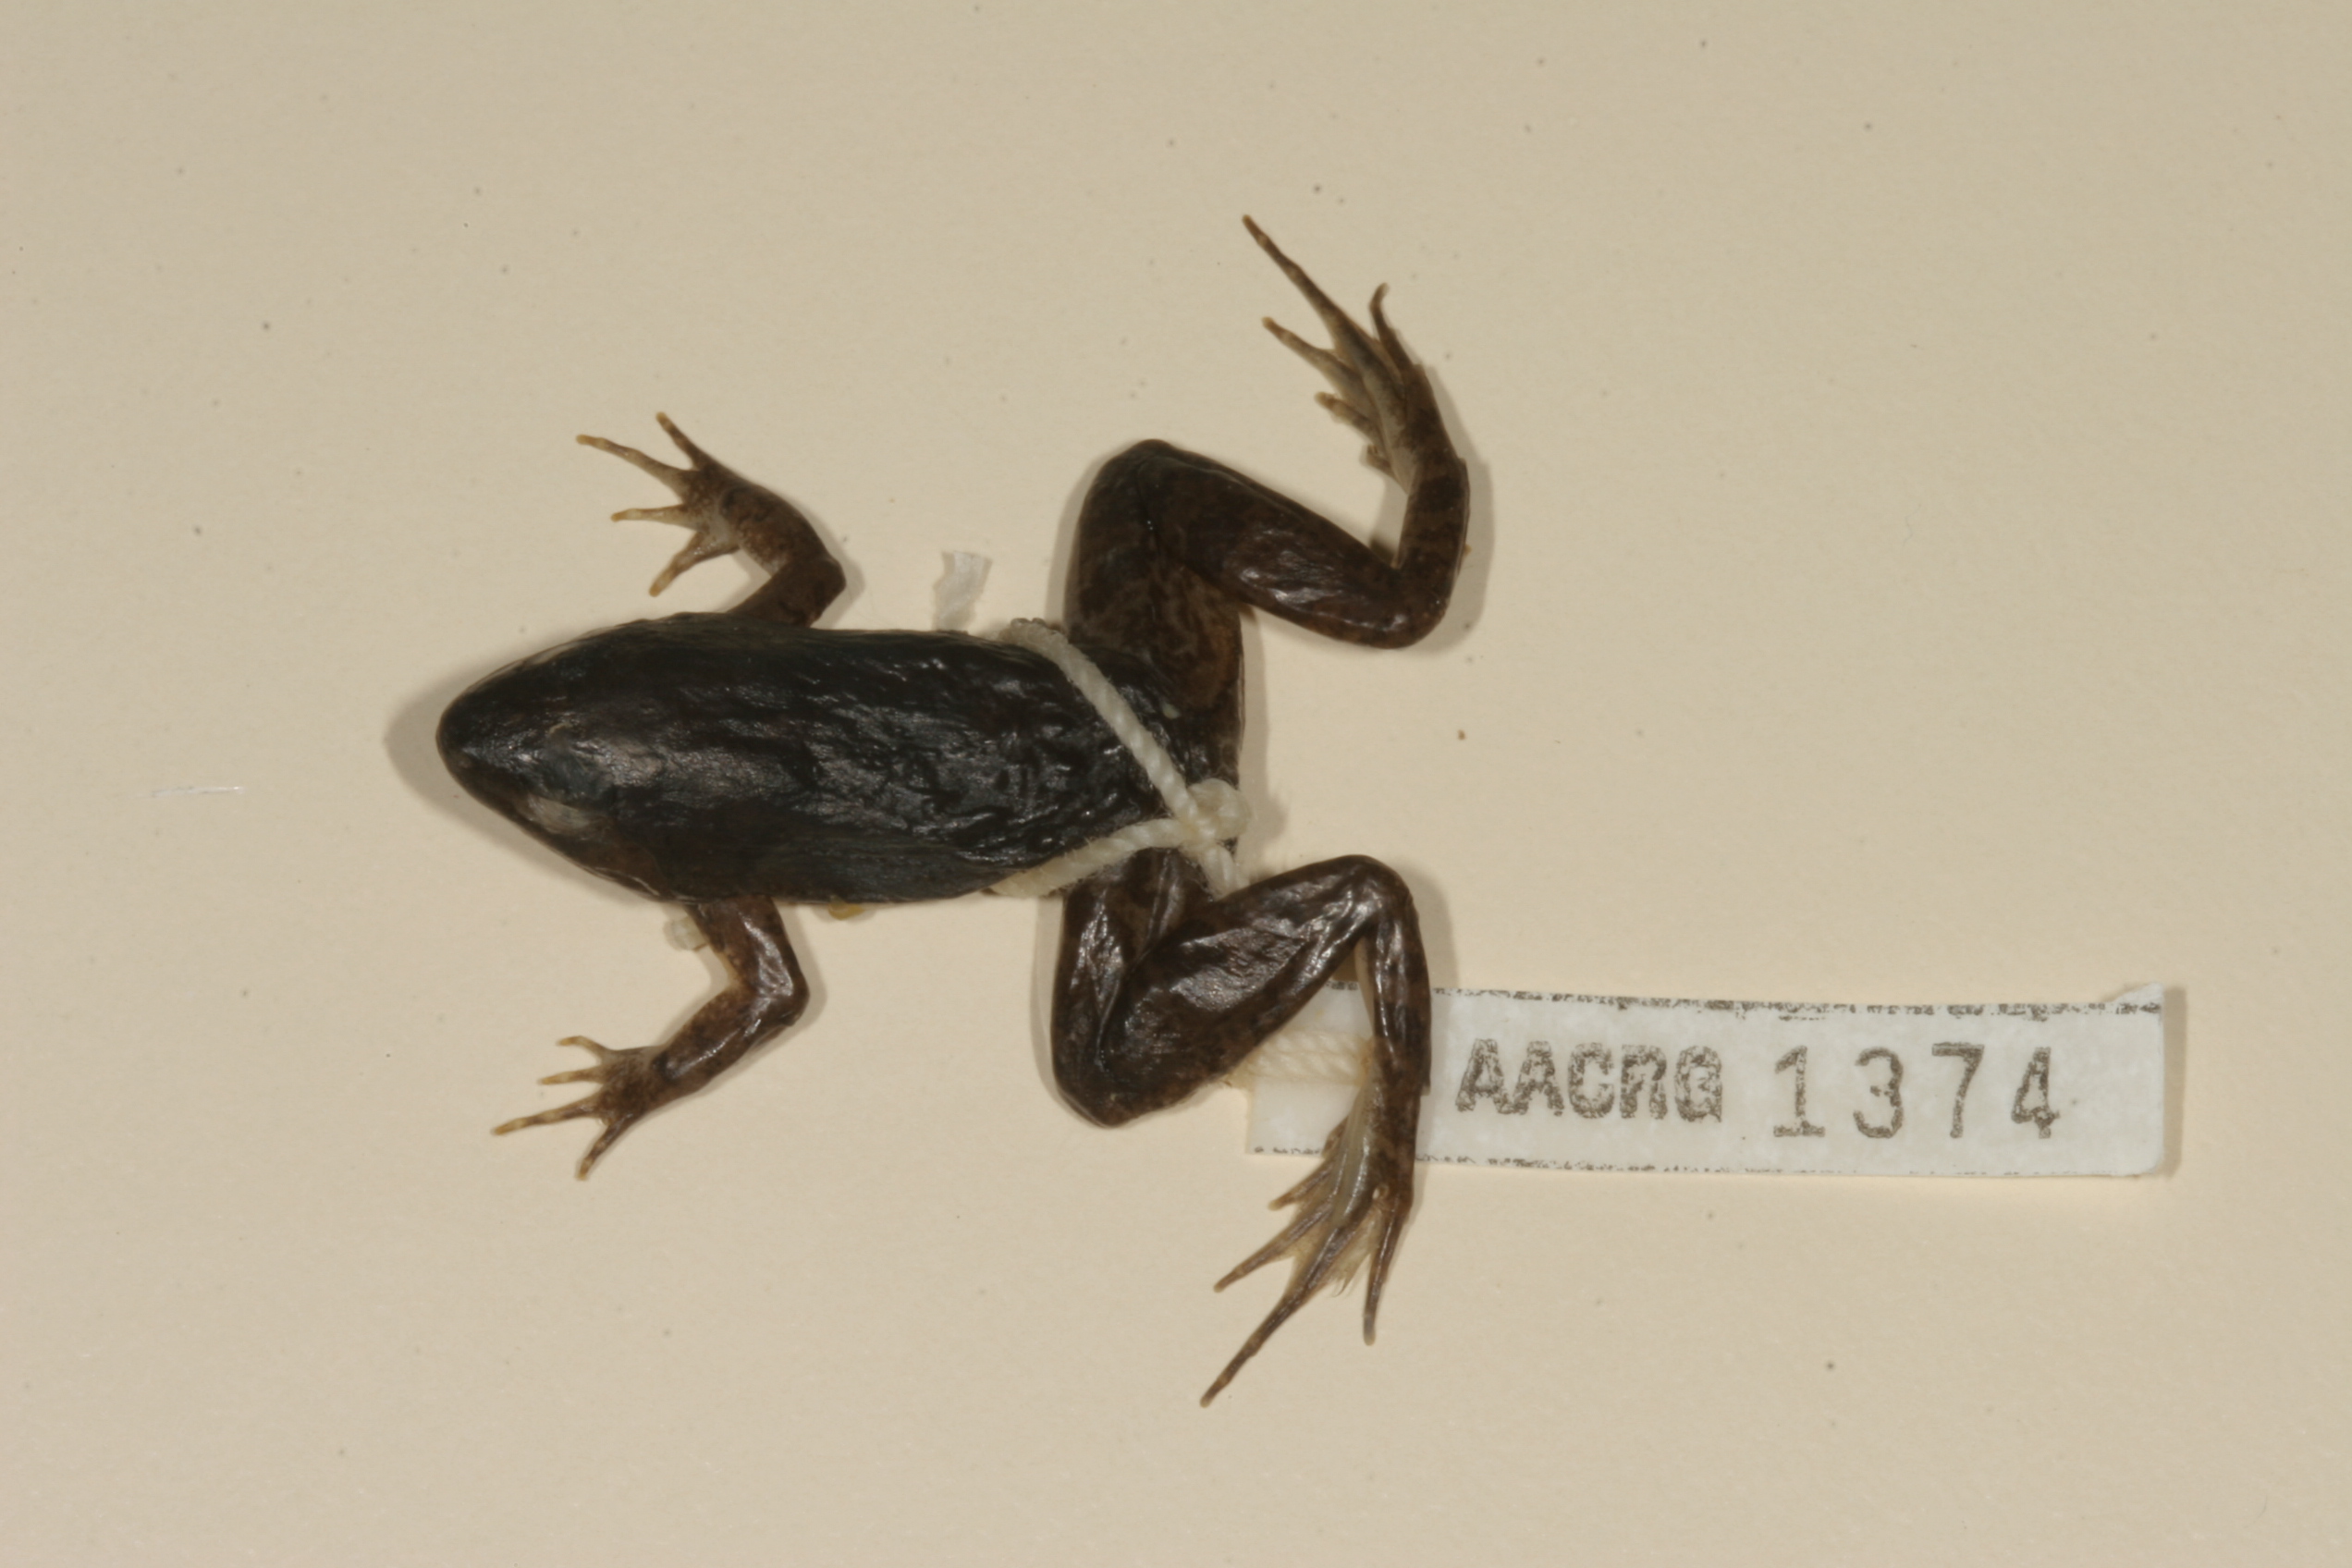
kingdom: Animalia
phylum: Chordata
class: Amphibia
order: Anura
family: Phrynobatrachidae
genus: Phrynobatrachus
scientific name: Phrynobatrachus natalensis
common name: Snoring puddle frog
